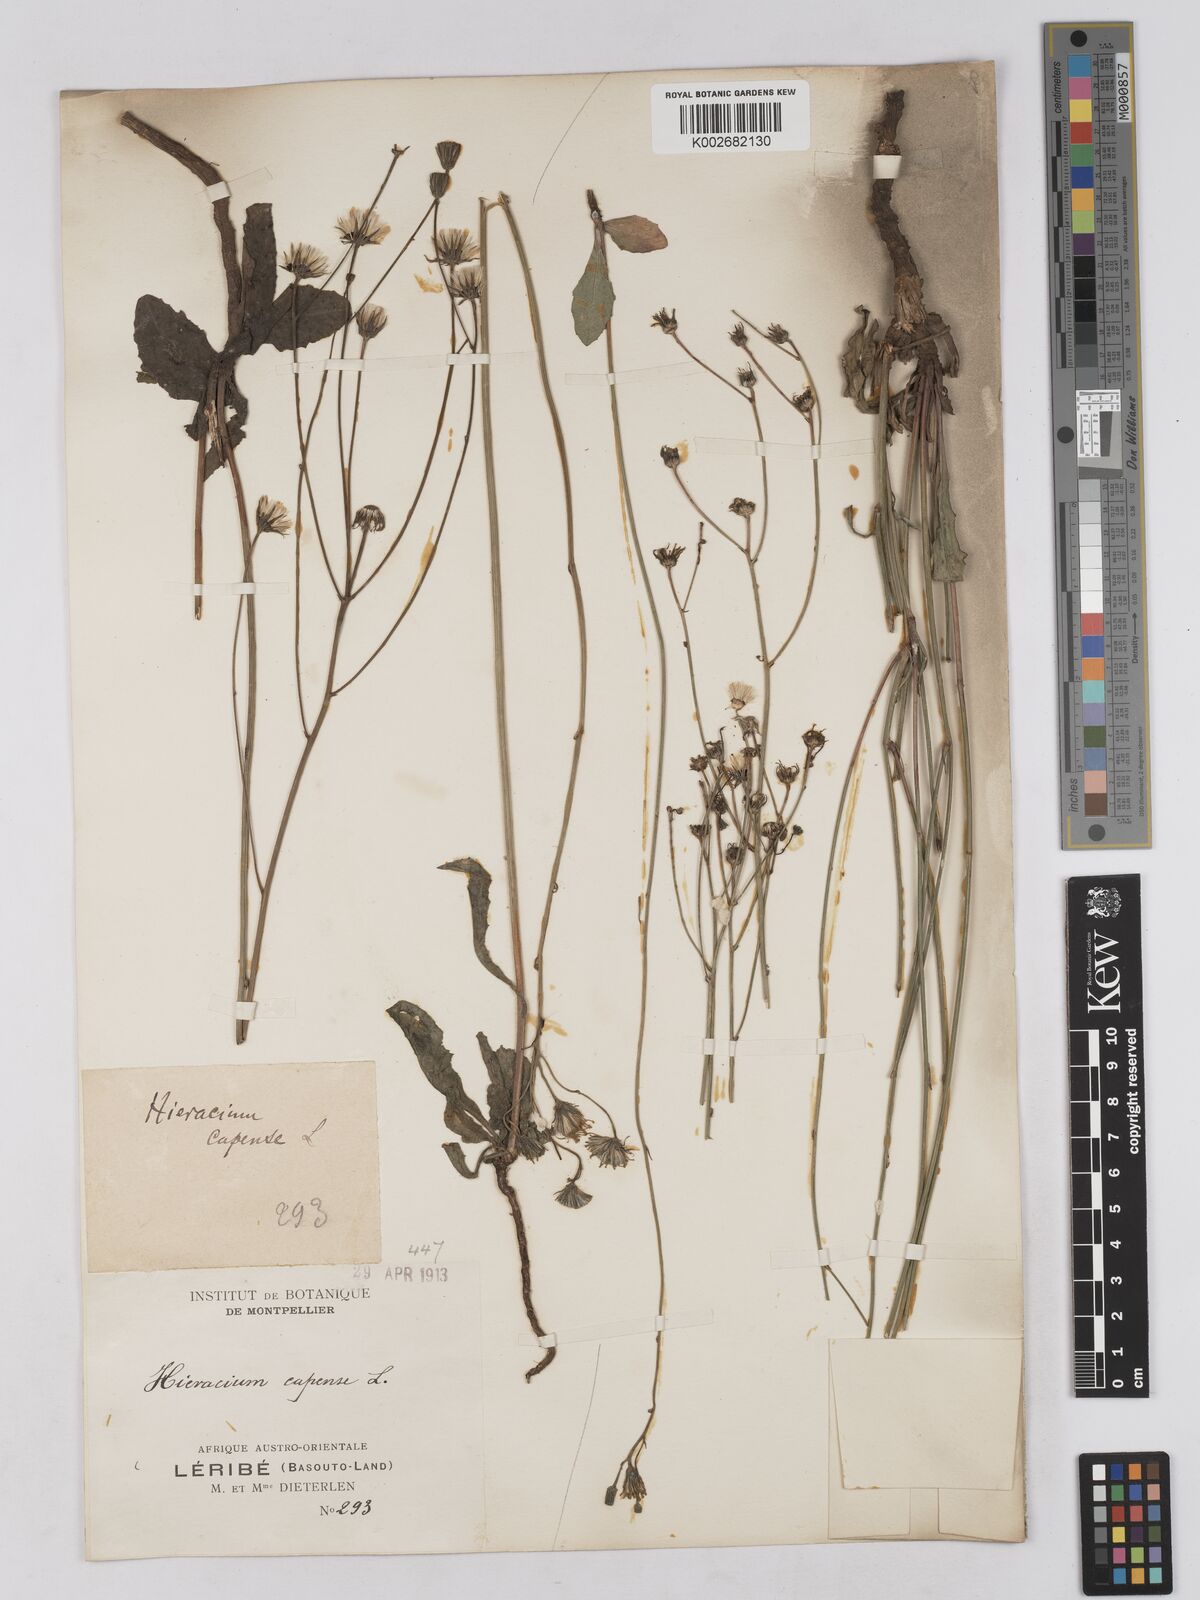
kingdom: Plantae
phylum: Tracheophyta
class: Magnoliopsida
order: Asterales
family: Asteraceae
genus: Tolpis
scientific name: Tolpis capensis
